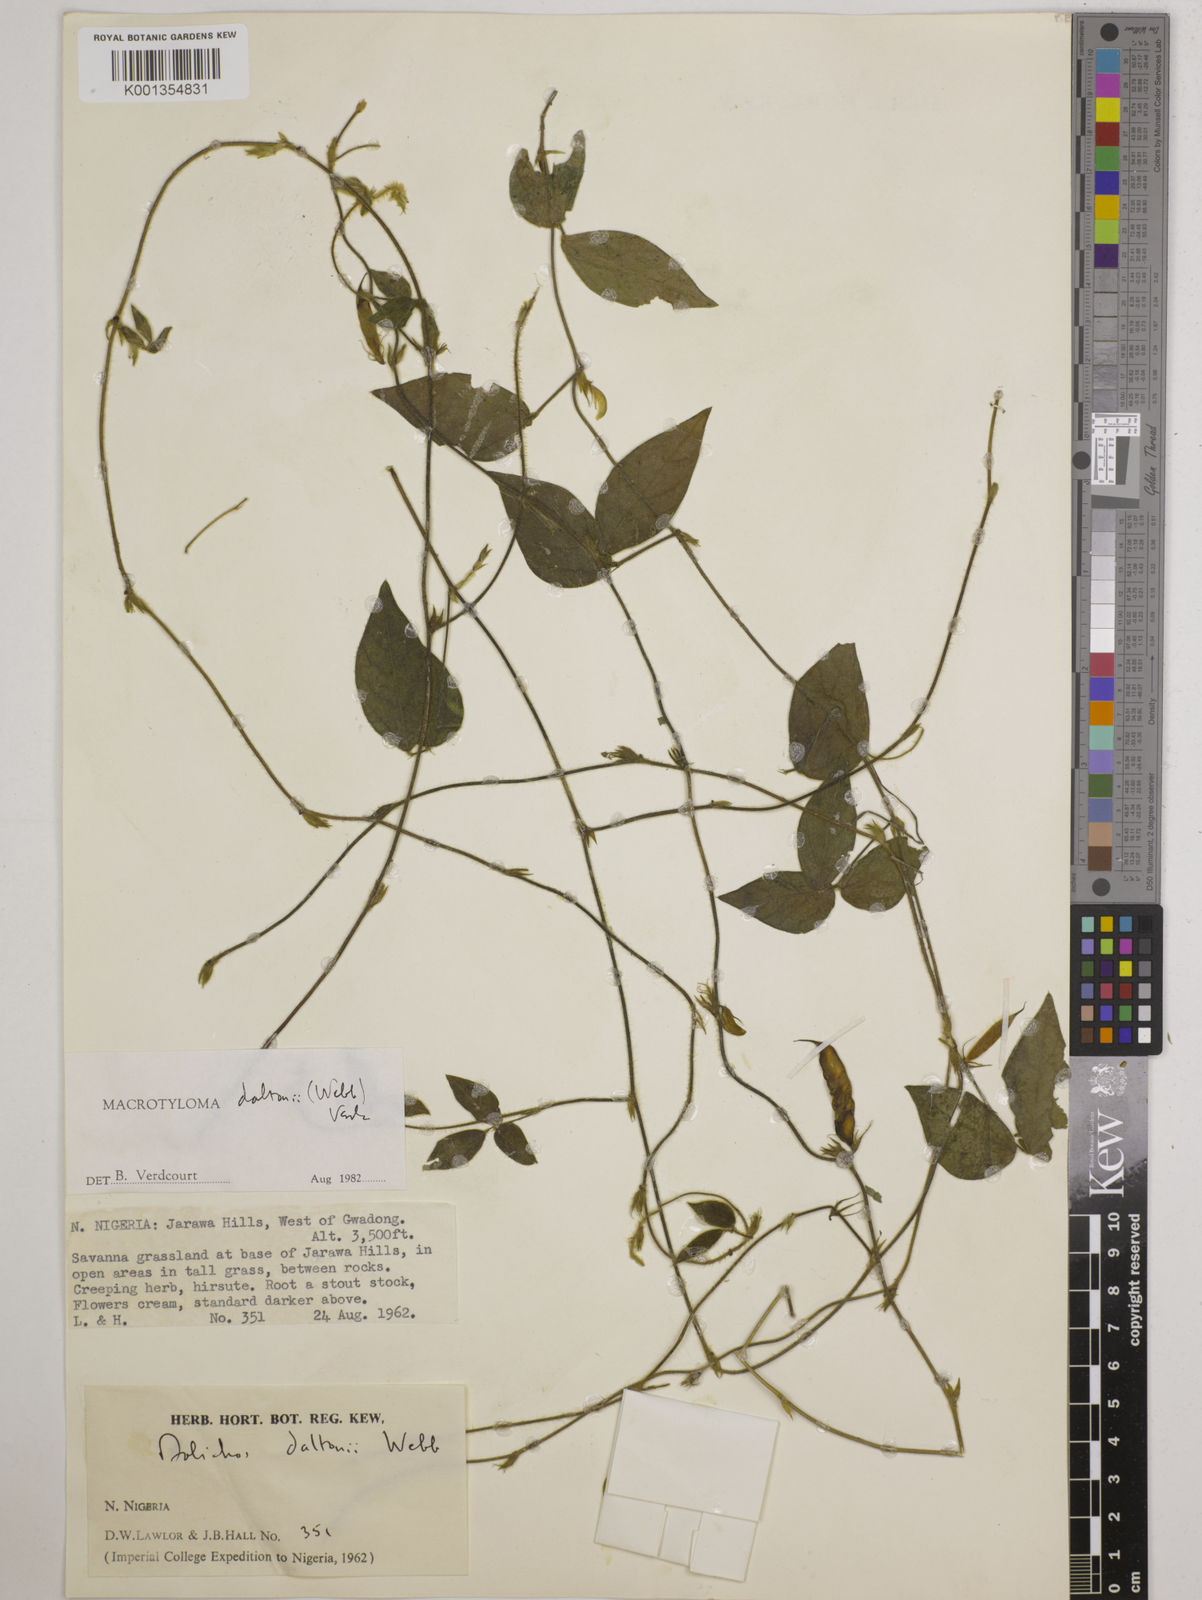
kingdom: Plantae
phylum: Tracheophyta
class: Magnoliopsida
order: Fabales
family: Fabaceae
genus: Macrotyloma
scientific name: Macrotyloma daltonii
